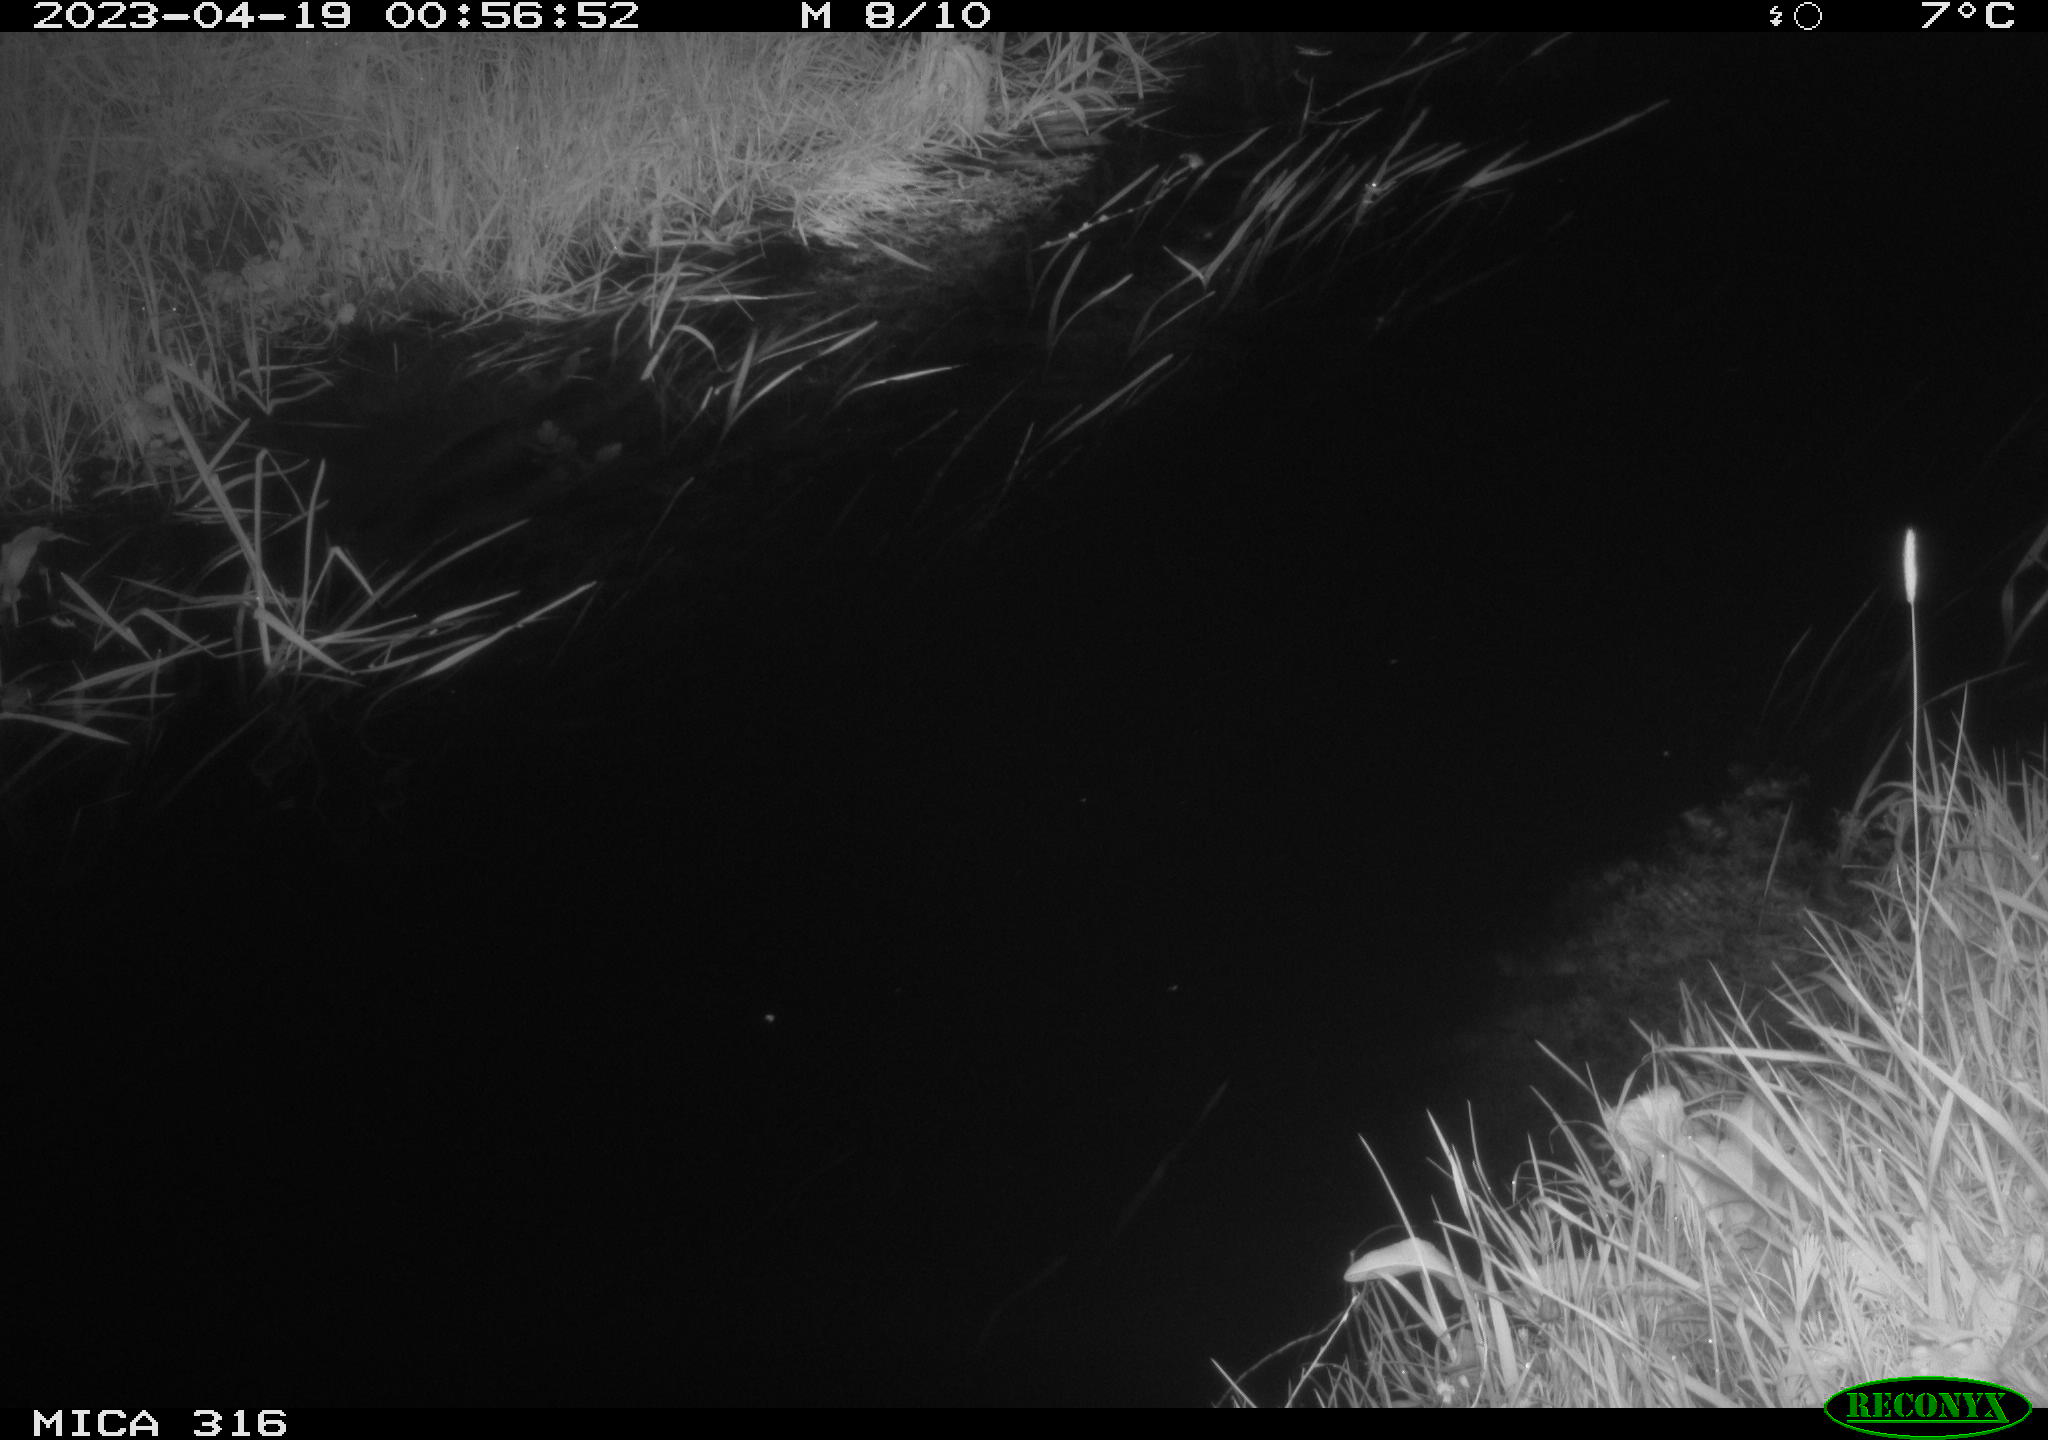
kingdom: Animalia
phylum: Chordata
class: Aves
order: Anseriformes
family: Anatidae
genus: Anas
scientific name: Anas
